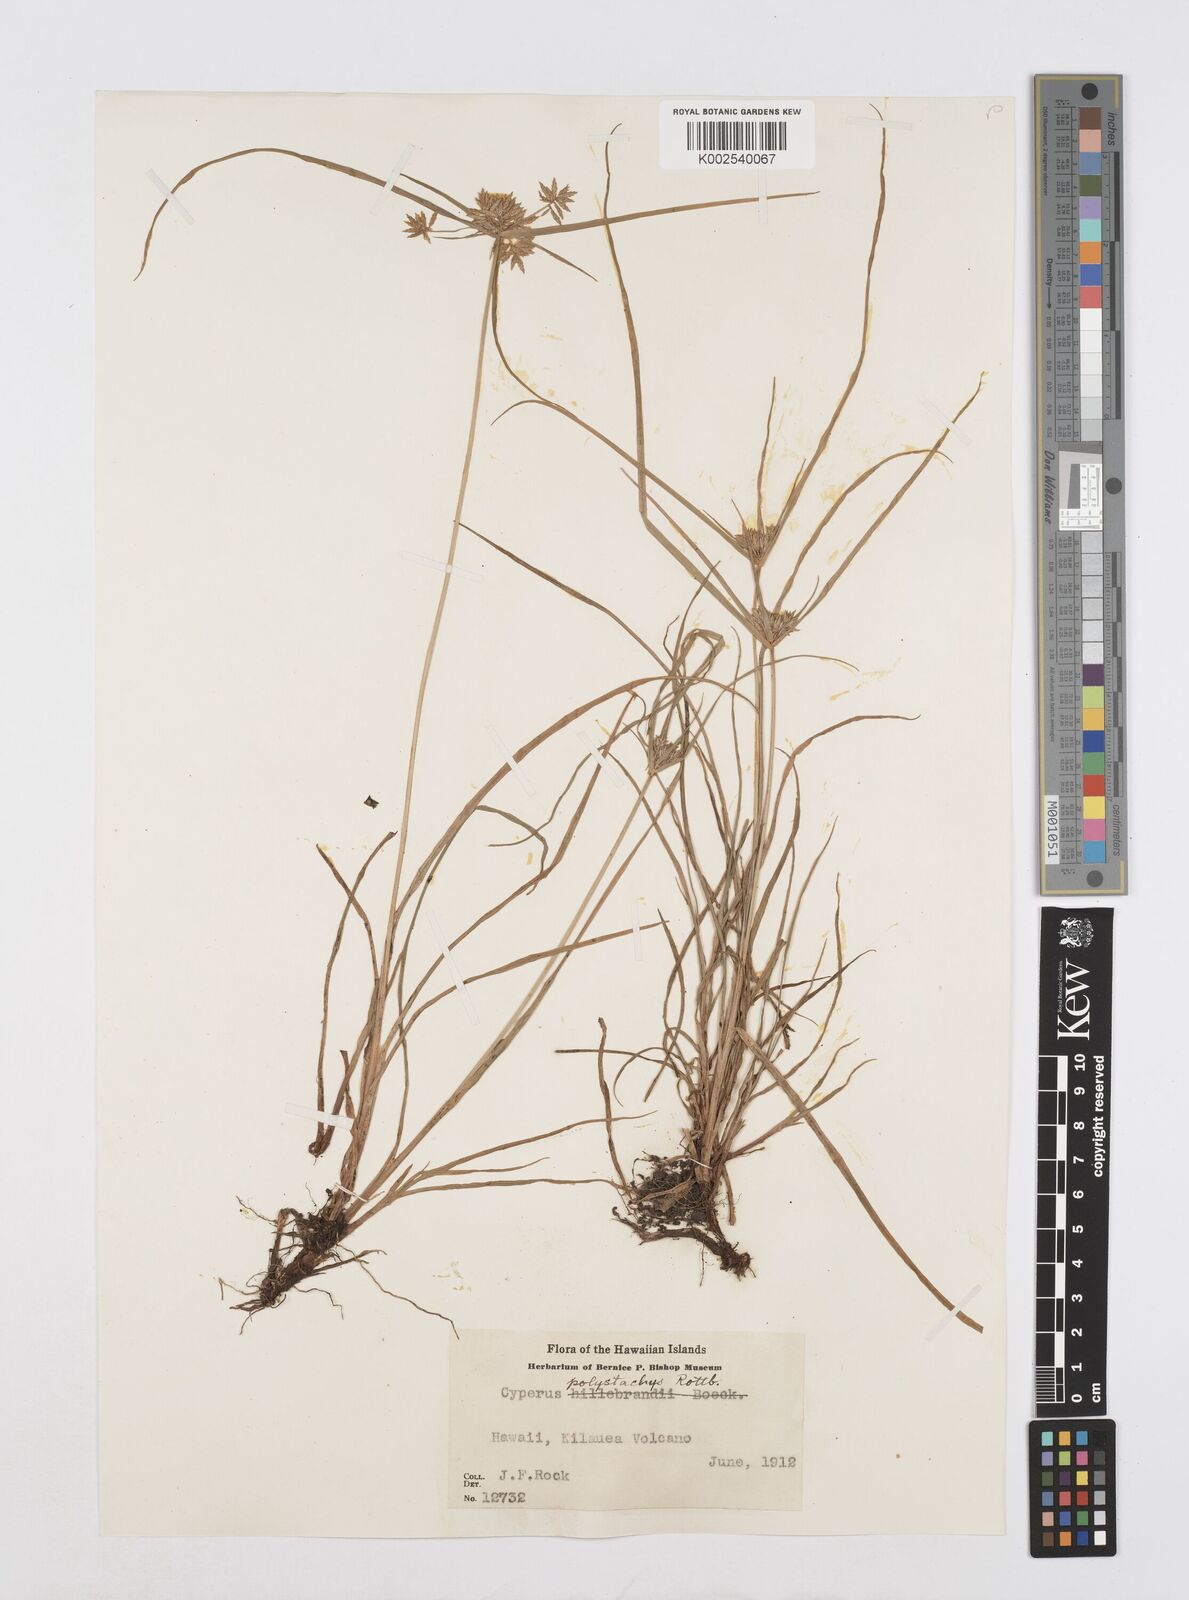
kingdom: Plantae
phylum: Tracheophyta
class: Liliopsida
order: Poales
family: Cyperaceae
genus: Cyperus
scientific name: Cyperus polystachyos
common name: Bunchy flat sedge
